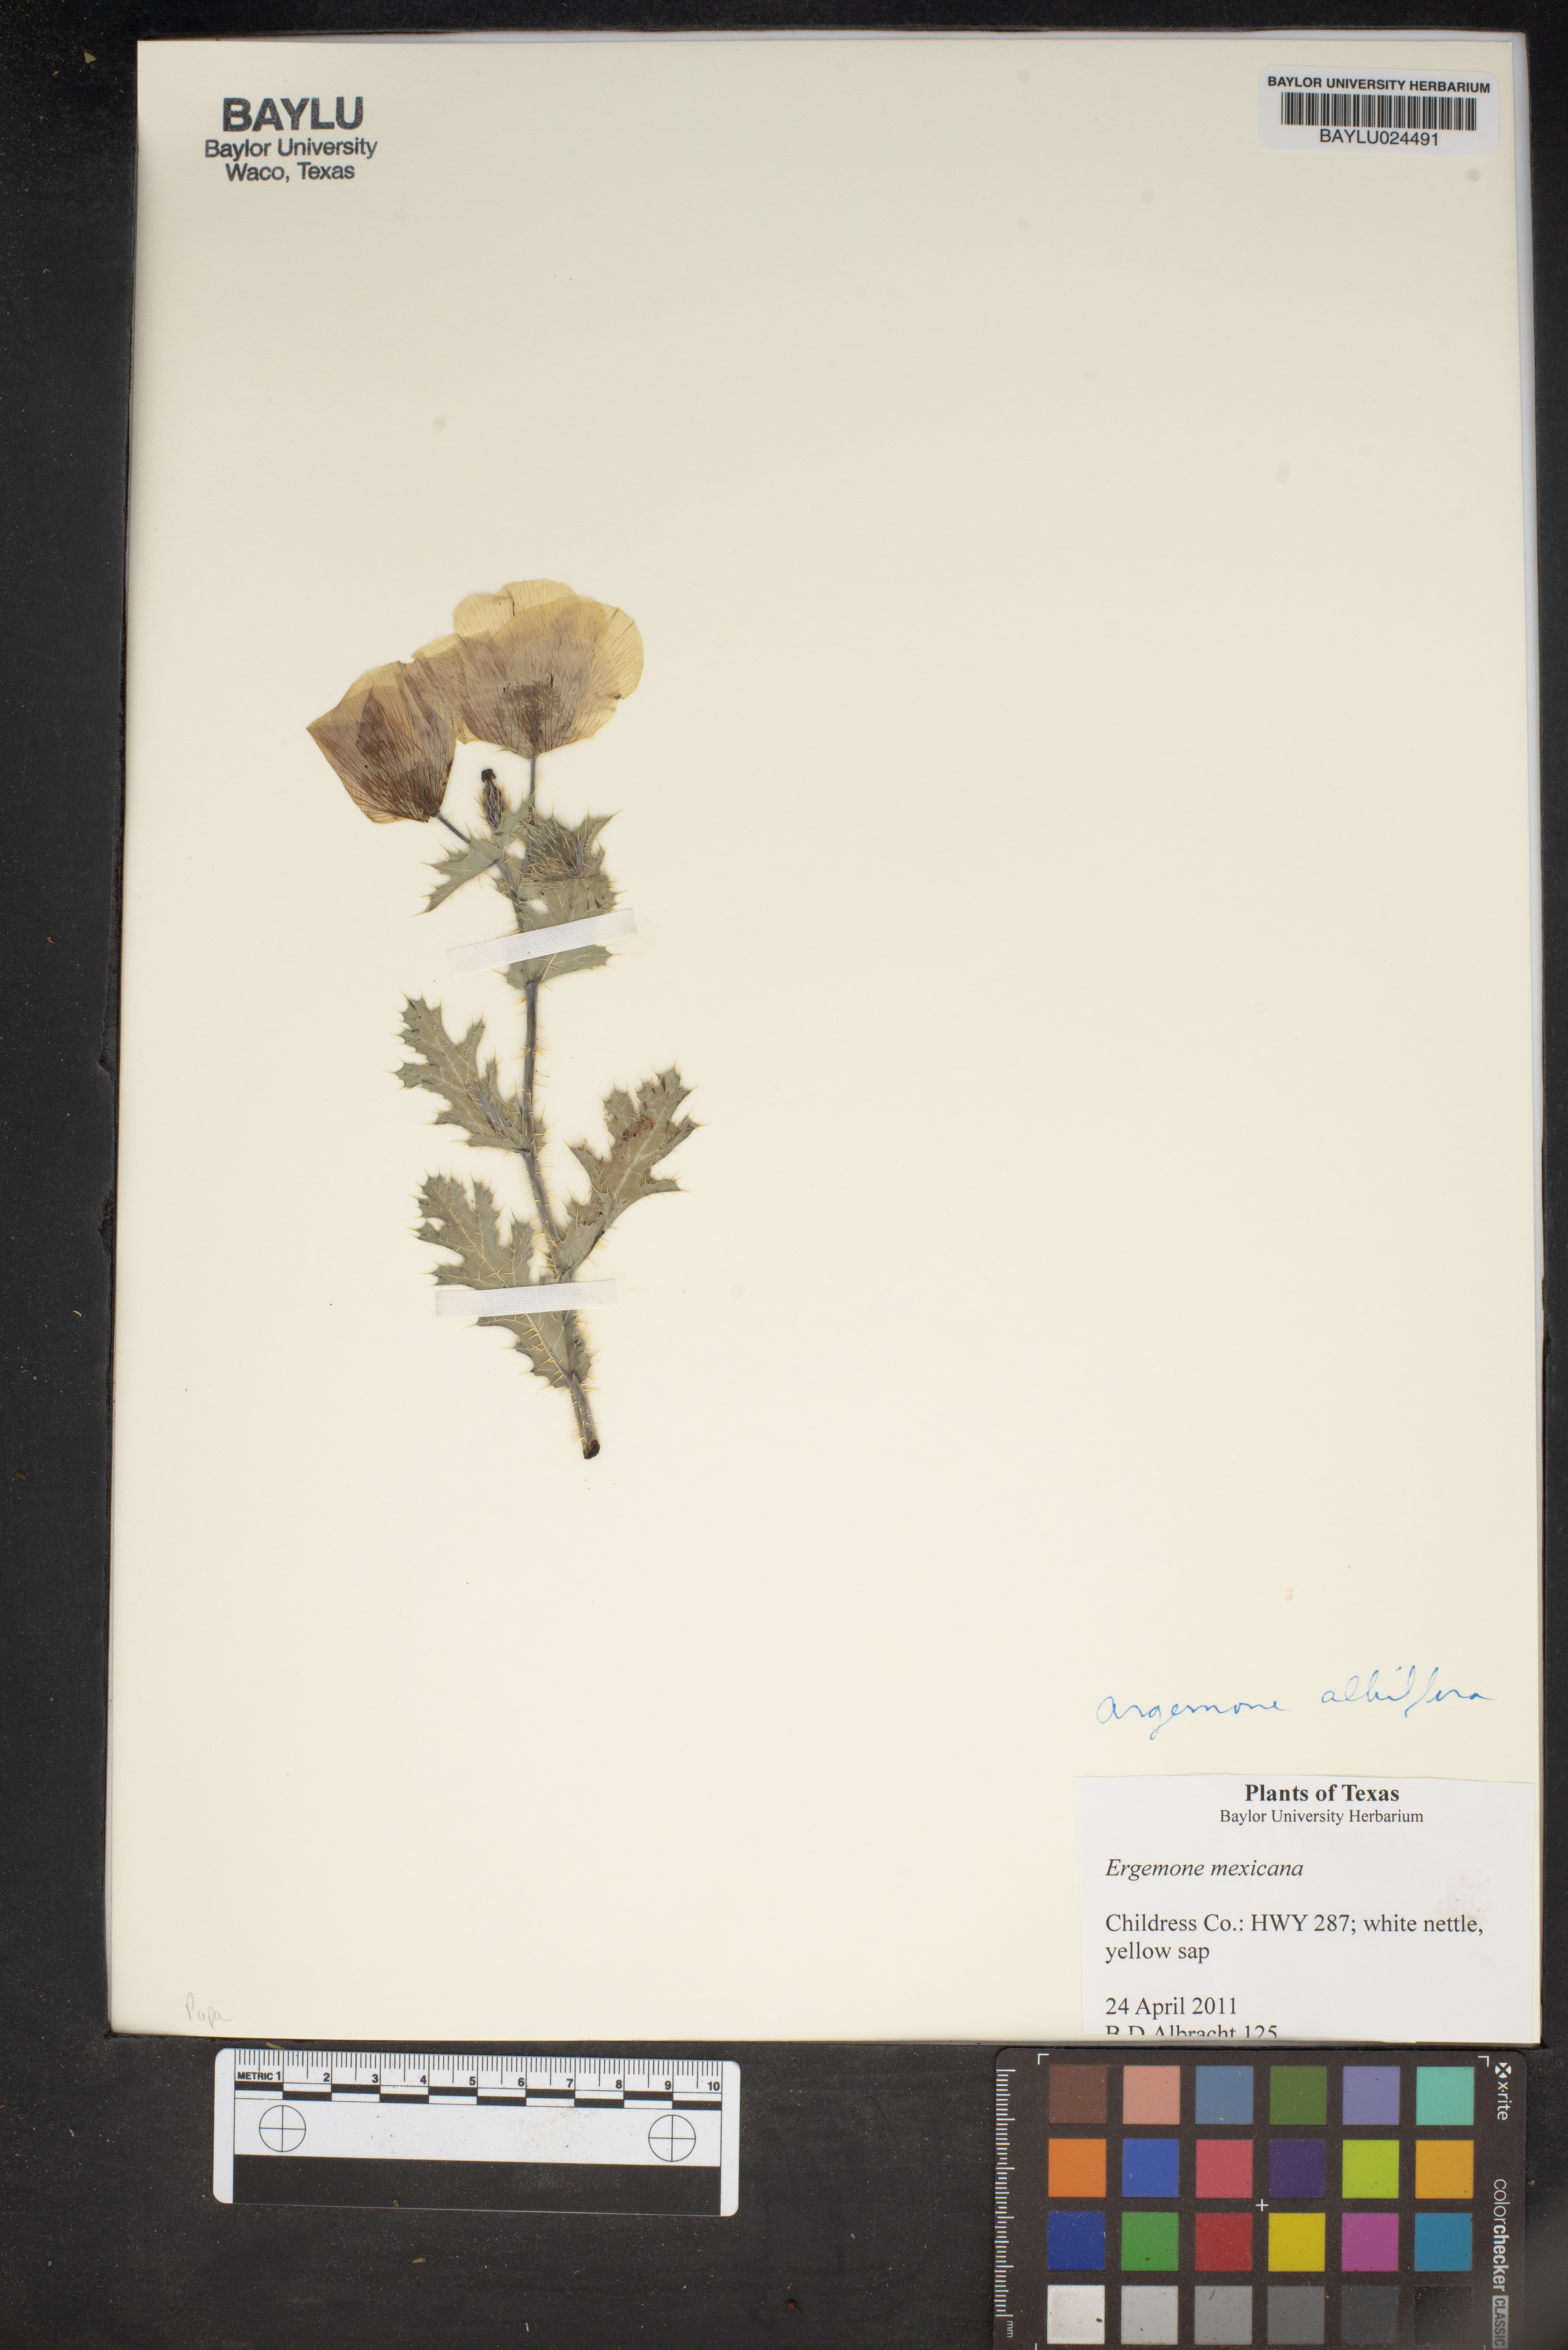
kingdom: Plantae
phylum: Tracheophyta
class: Magnoliopsida
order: Ranunculales
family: Papaveraceae
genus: Argemone
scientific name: Argemone mexicana
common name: Mexican poppy
